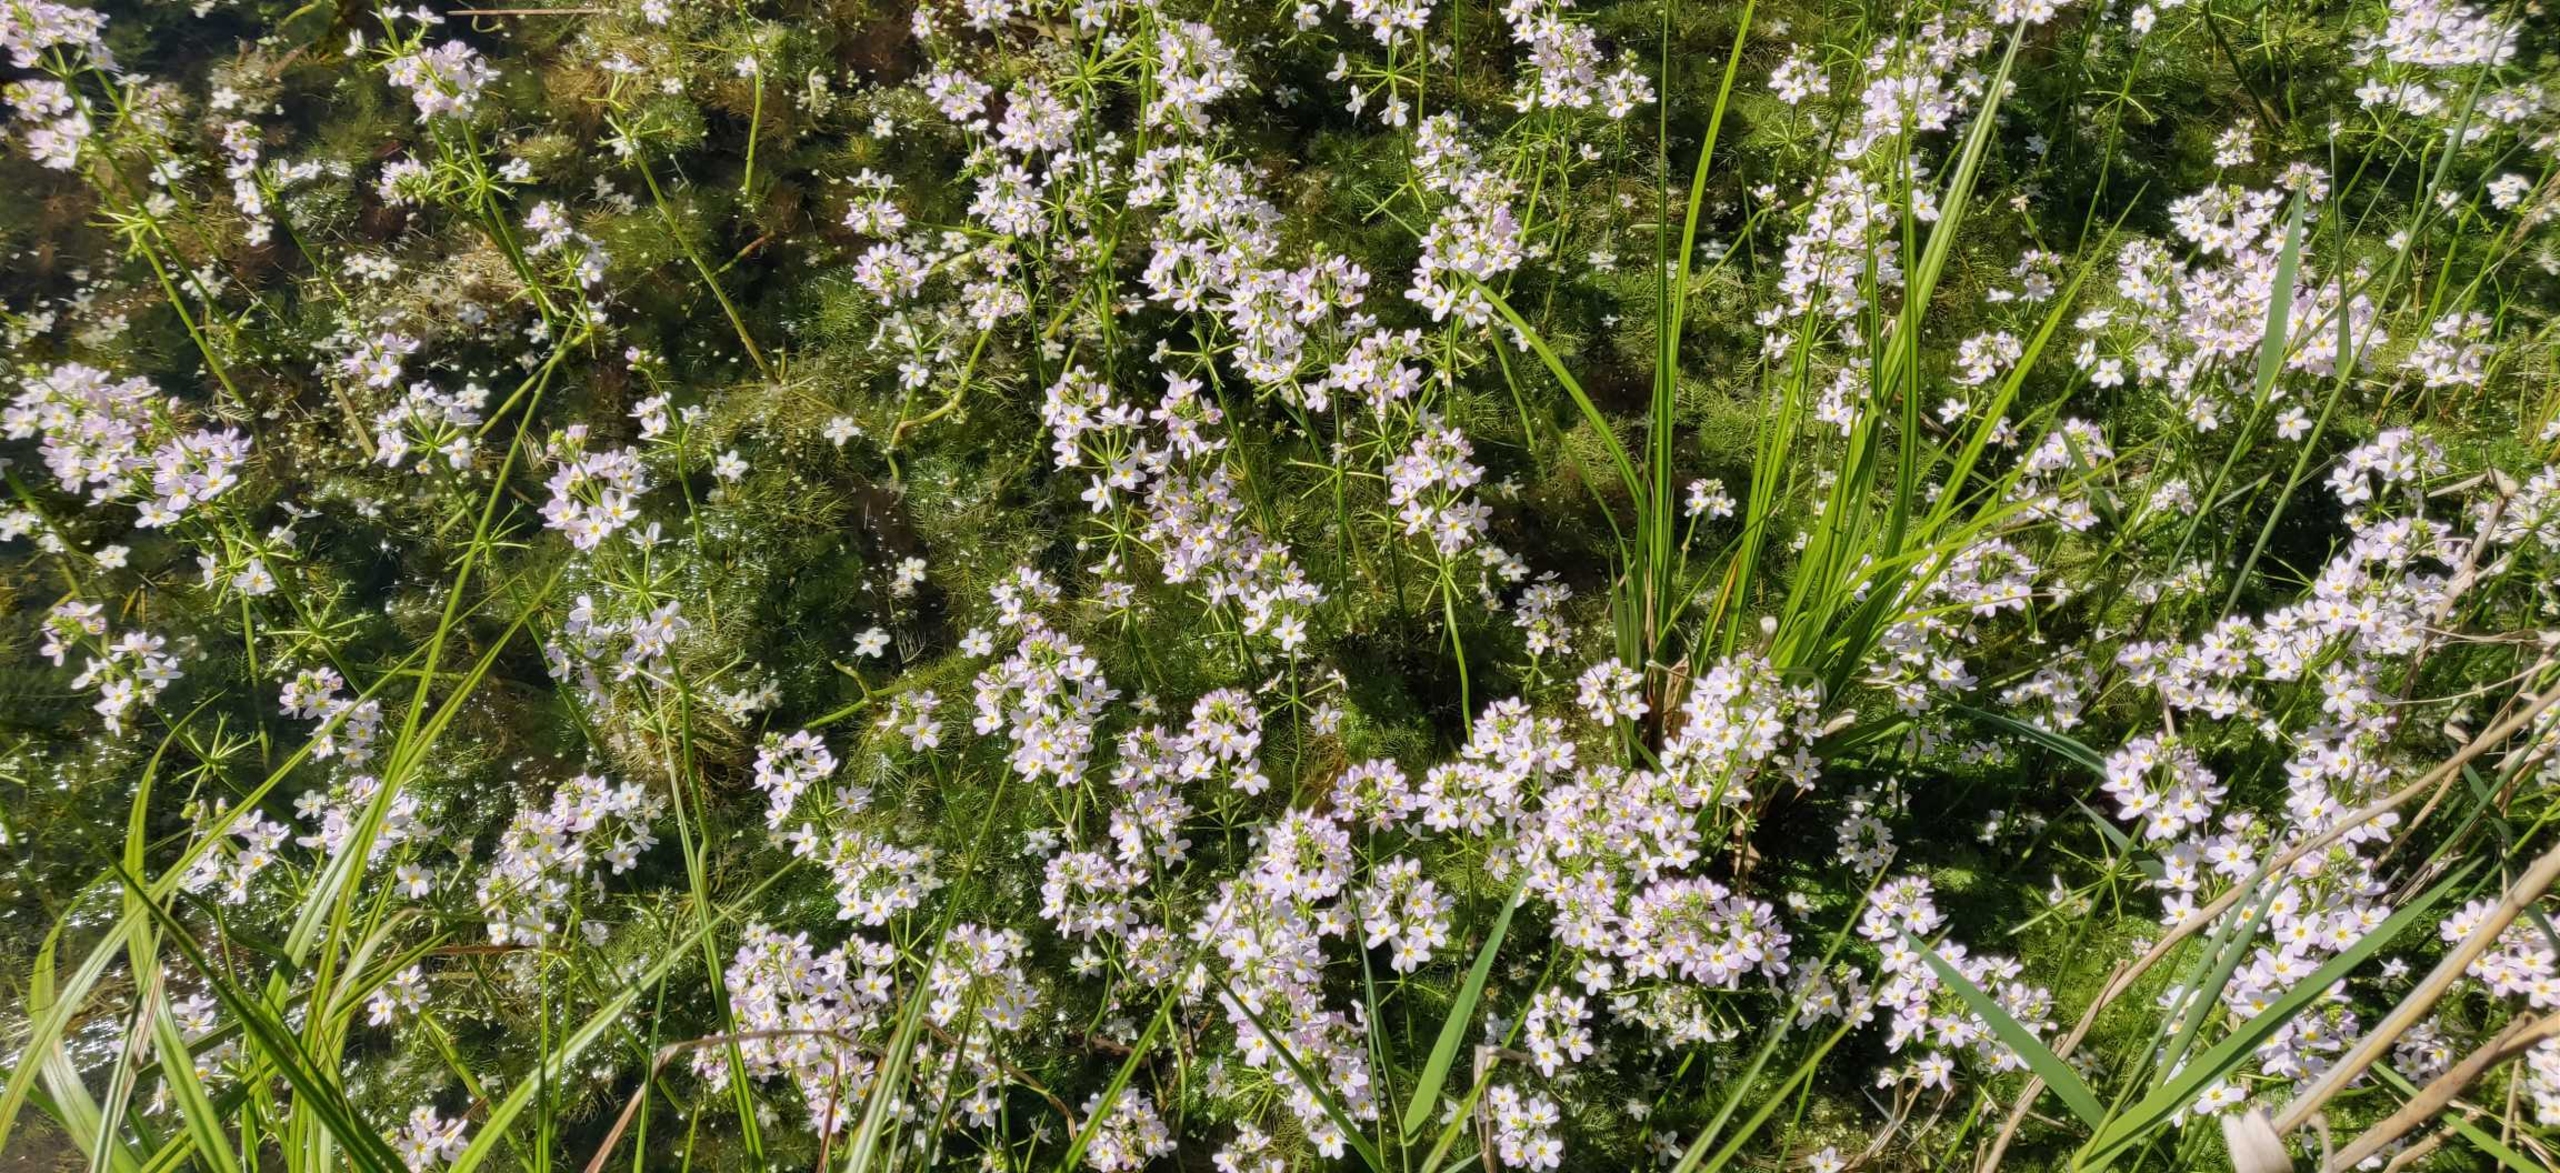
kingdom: Plantae
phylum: Tracheophyta
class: Magnoliopsida
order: Ericales
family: Primulaceae
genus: Hottonia
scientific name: Hottonia palustris
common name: Vandrøllike
